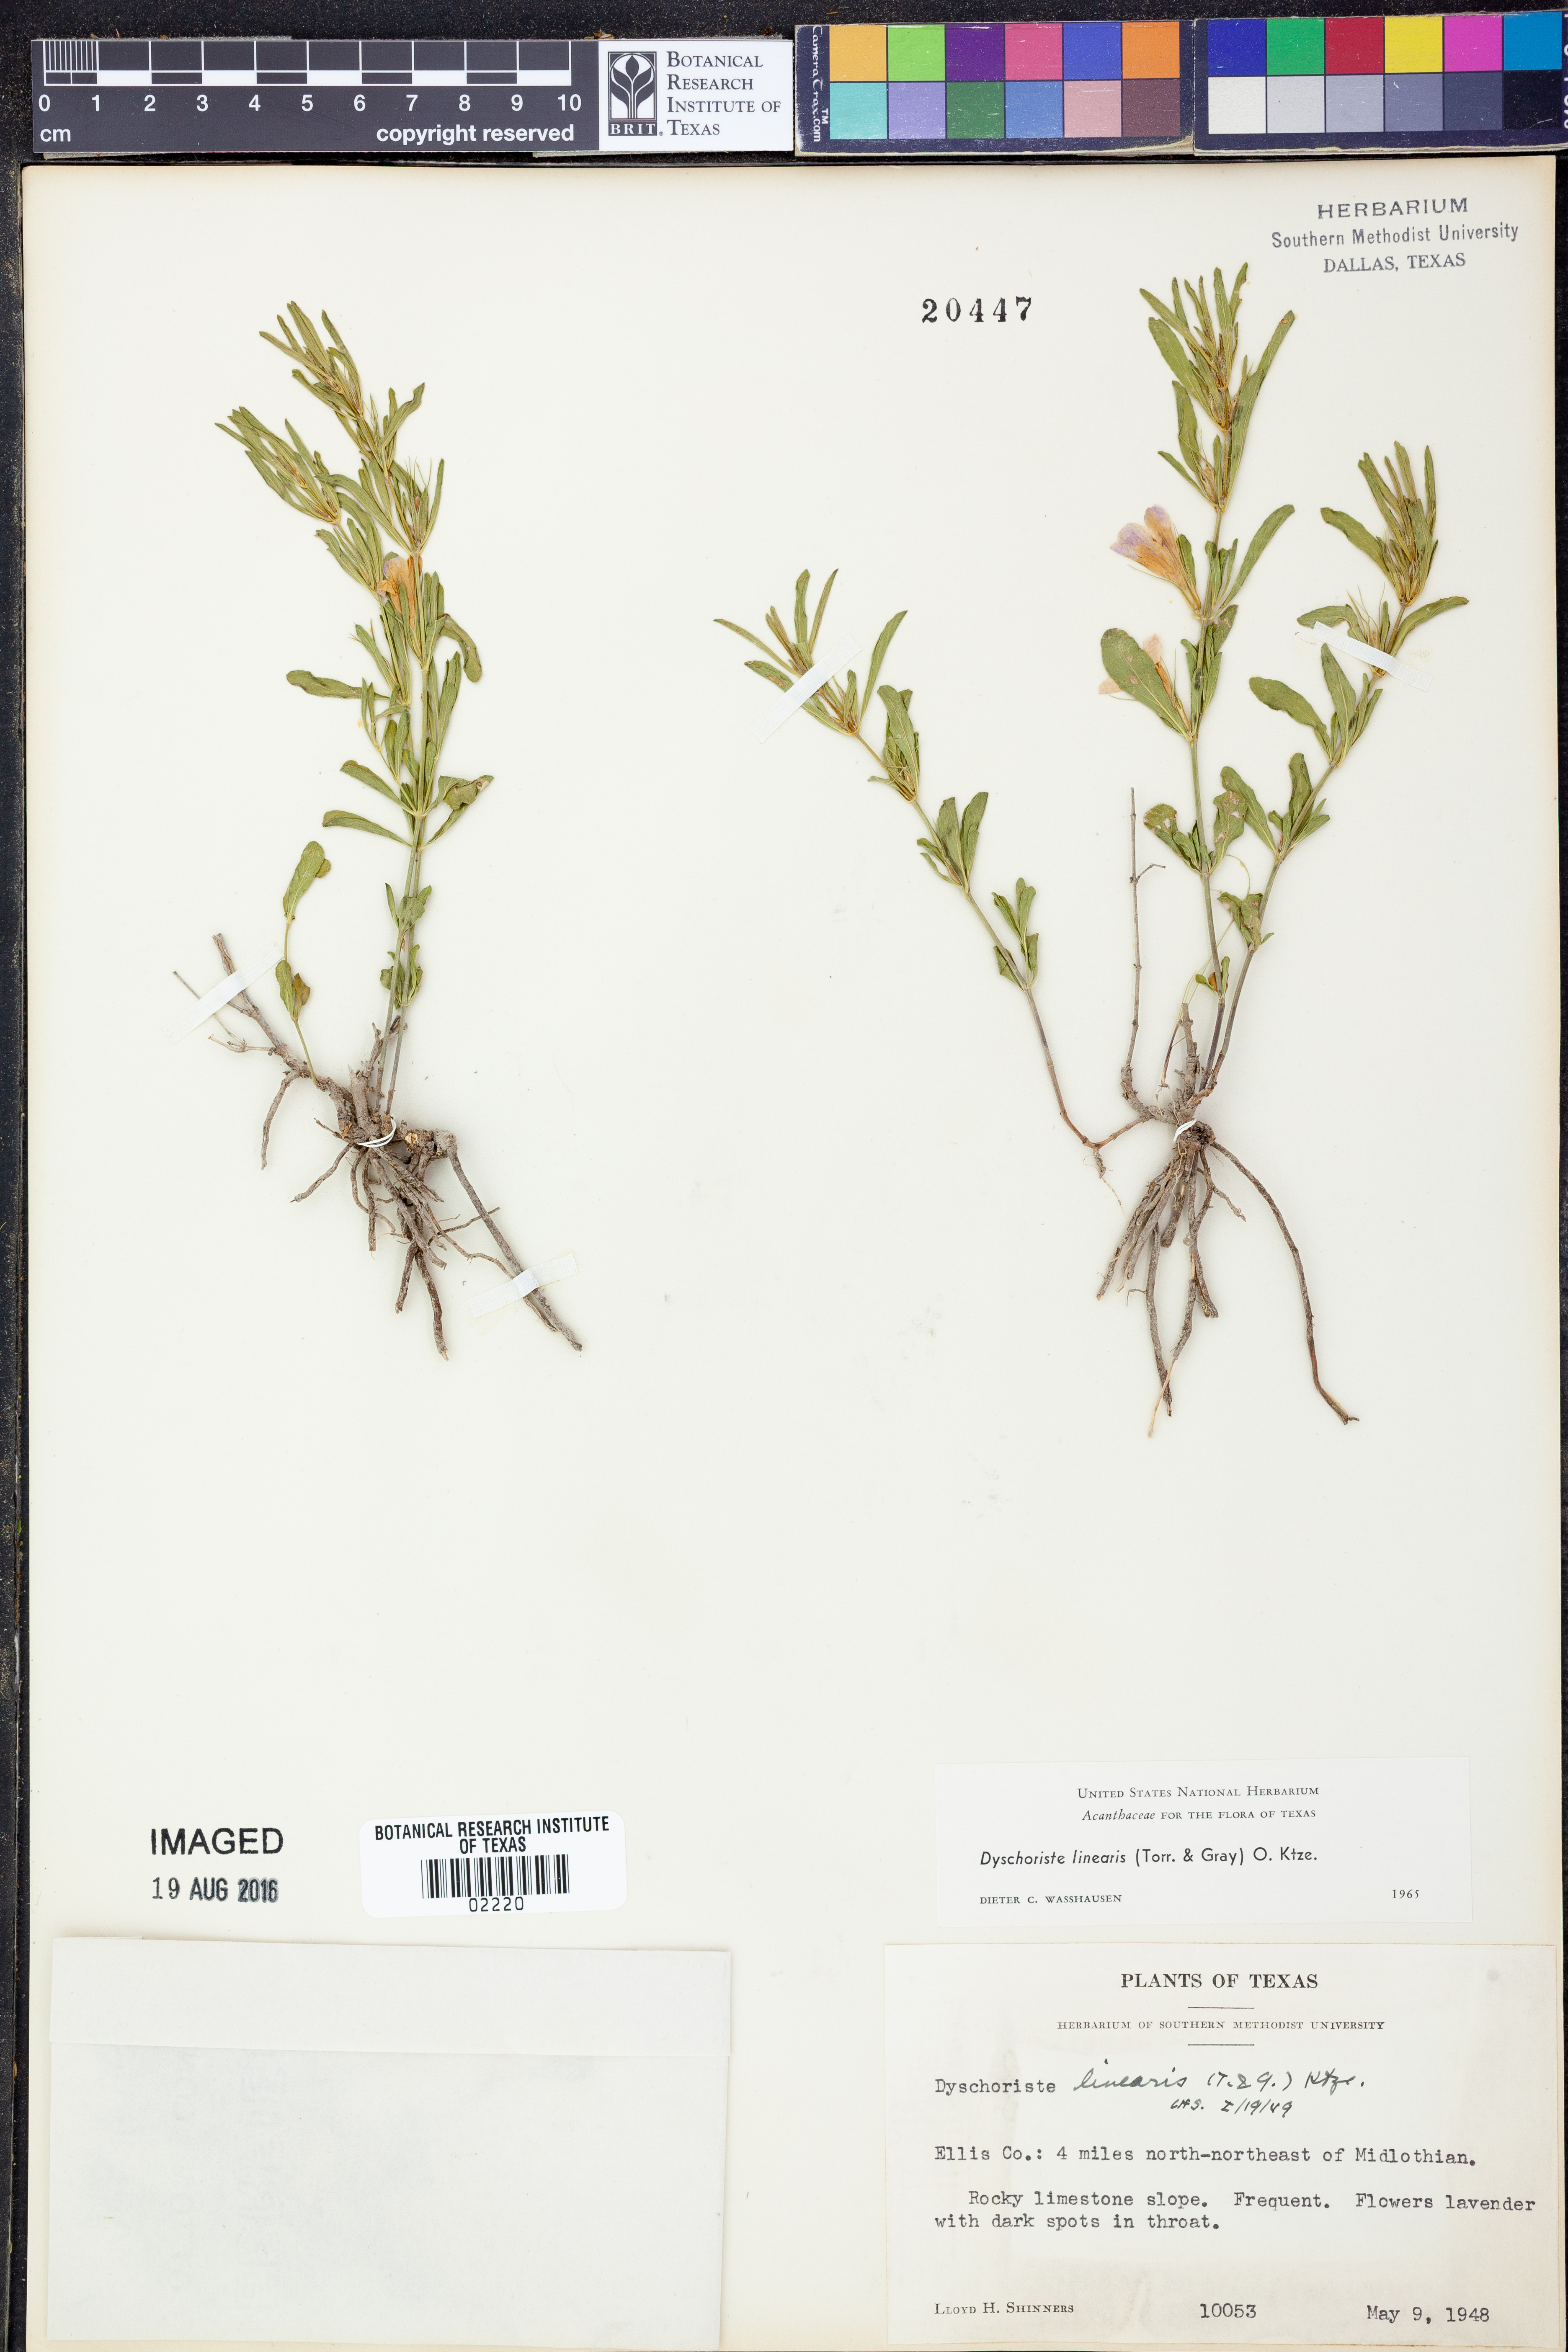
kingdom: Plantae
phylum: Tracheophyta
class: Magnoliopsida
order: Lamiales
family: Acanthaceae
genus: Dyschoriste
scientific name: Dyschoriste linearis
